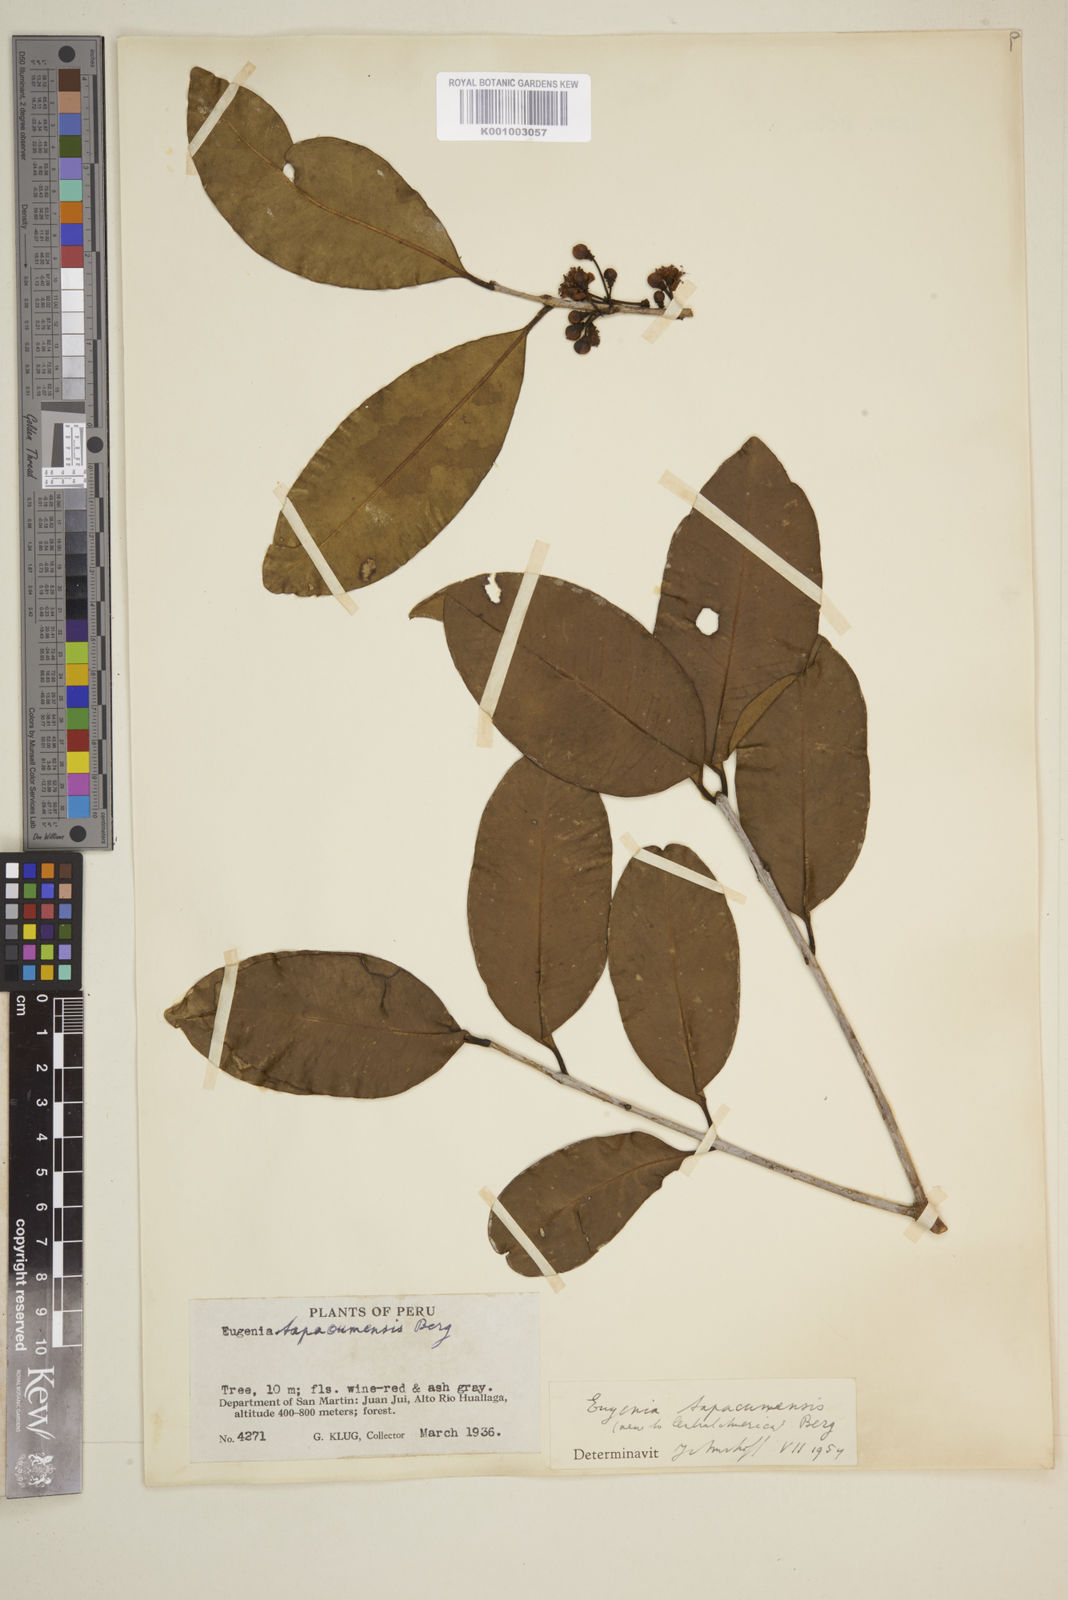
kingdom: Plantae
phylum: Tracheophyta
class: Magnoliopsida
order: Myrtales
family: Myrtaceae
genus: Eugenia
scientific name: Eugenia tapacumensis
